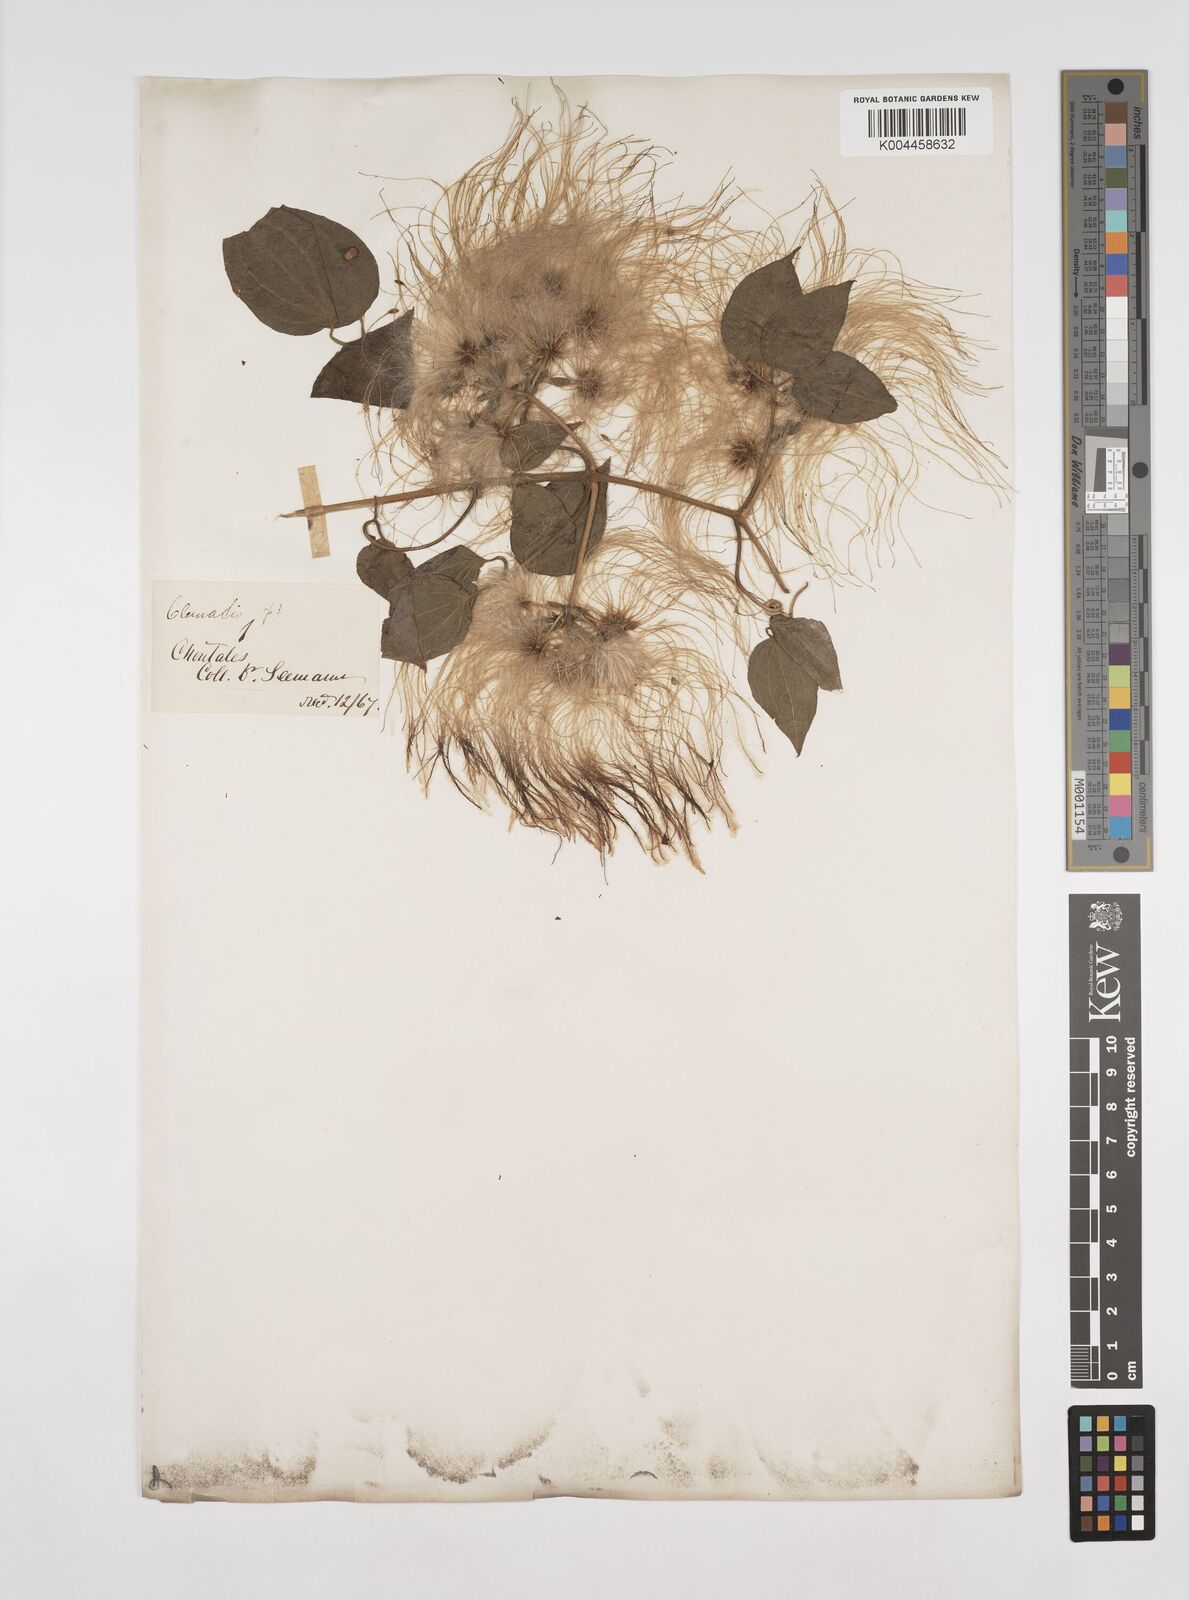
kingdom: Plantae
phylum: Tracheophyta
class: Magnoliopsida
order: Ranunculales
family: Ranunculaceae
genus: Clematis
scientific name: Clematis dioica
